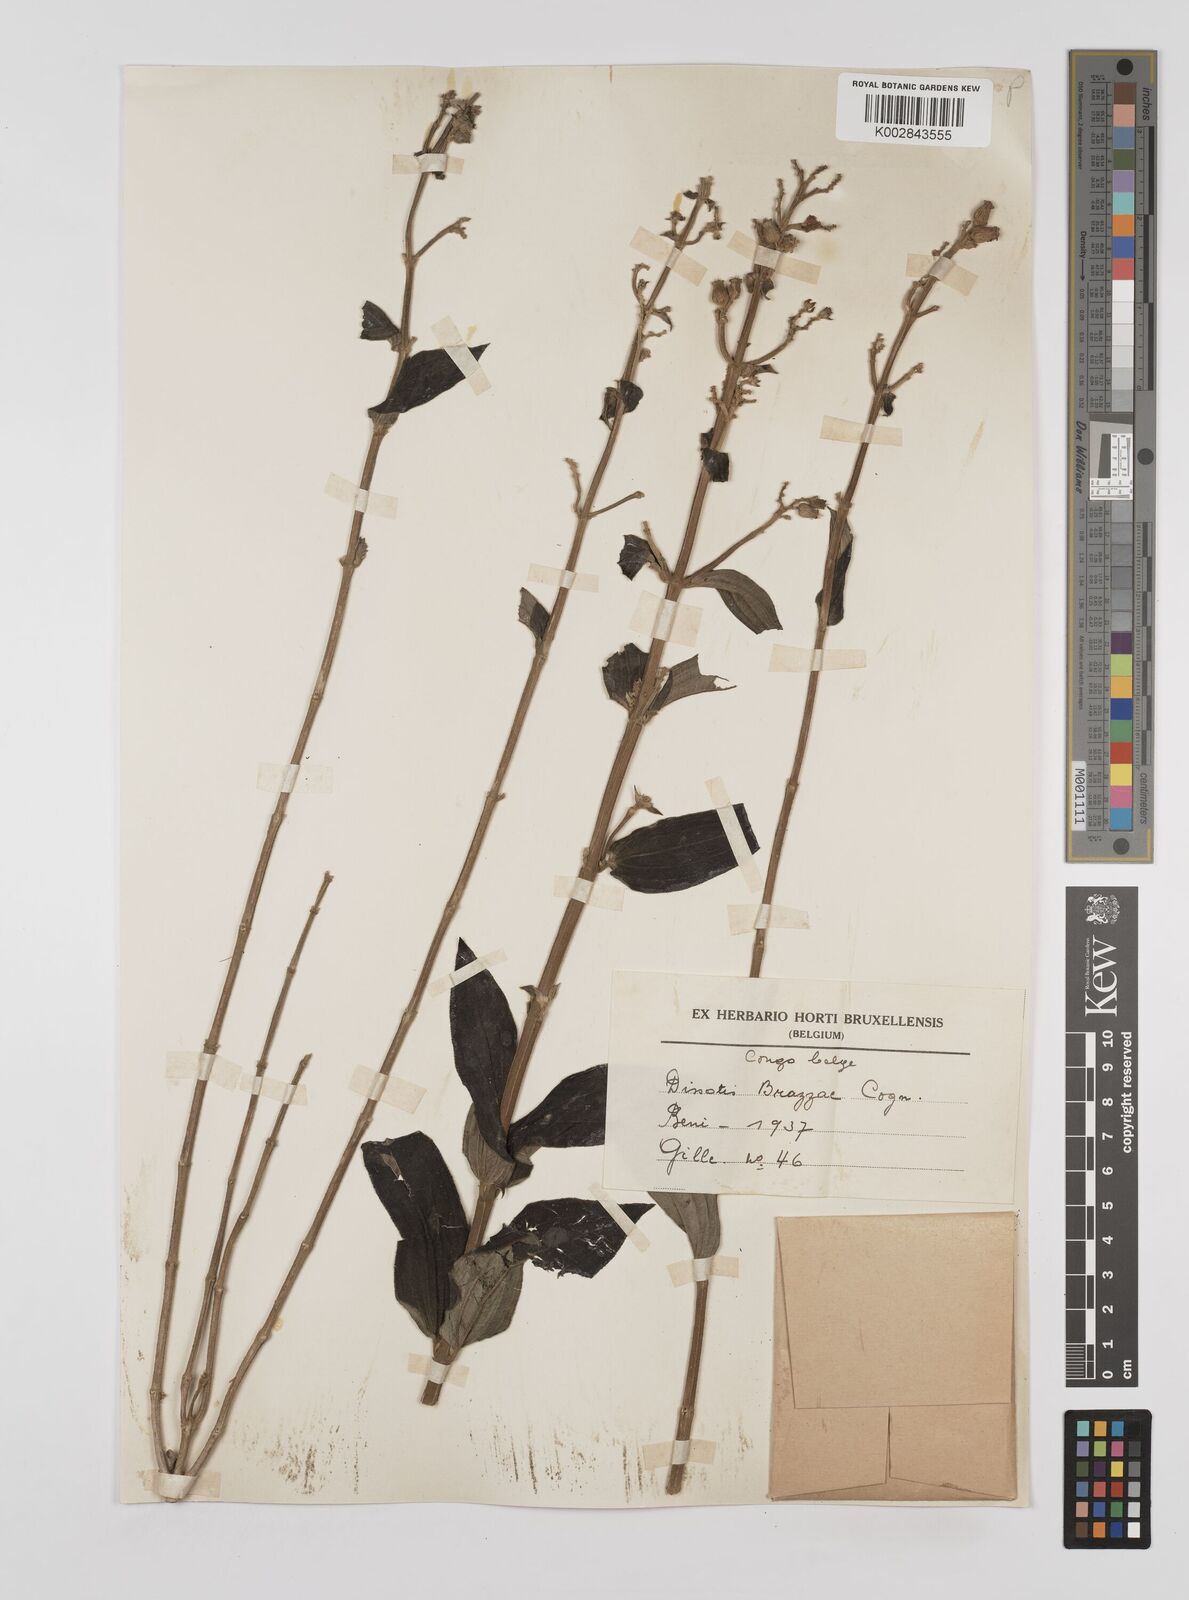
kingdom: Plantae
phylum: Tracheophyta
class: Magnoliopsida
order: Myrtales
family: Melastomataceae
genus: Dupineta
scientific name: Dupineta brazzae
